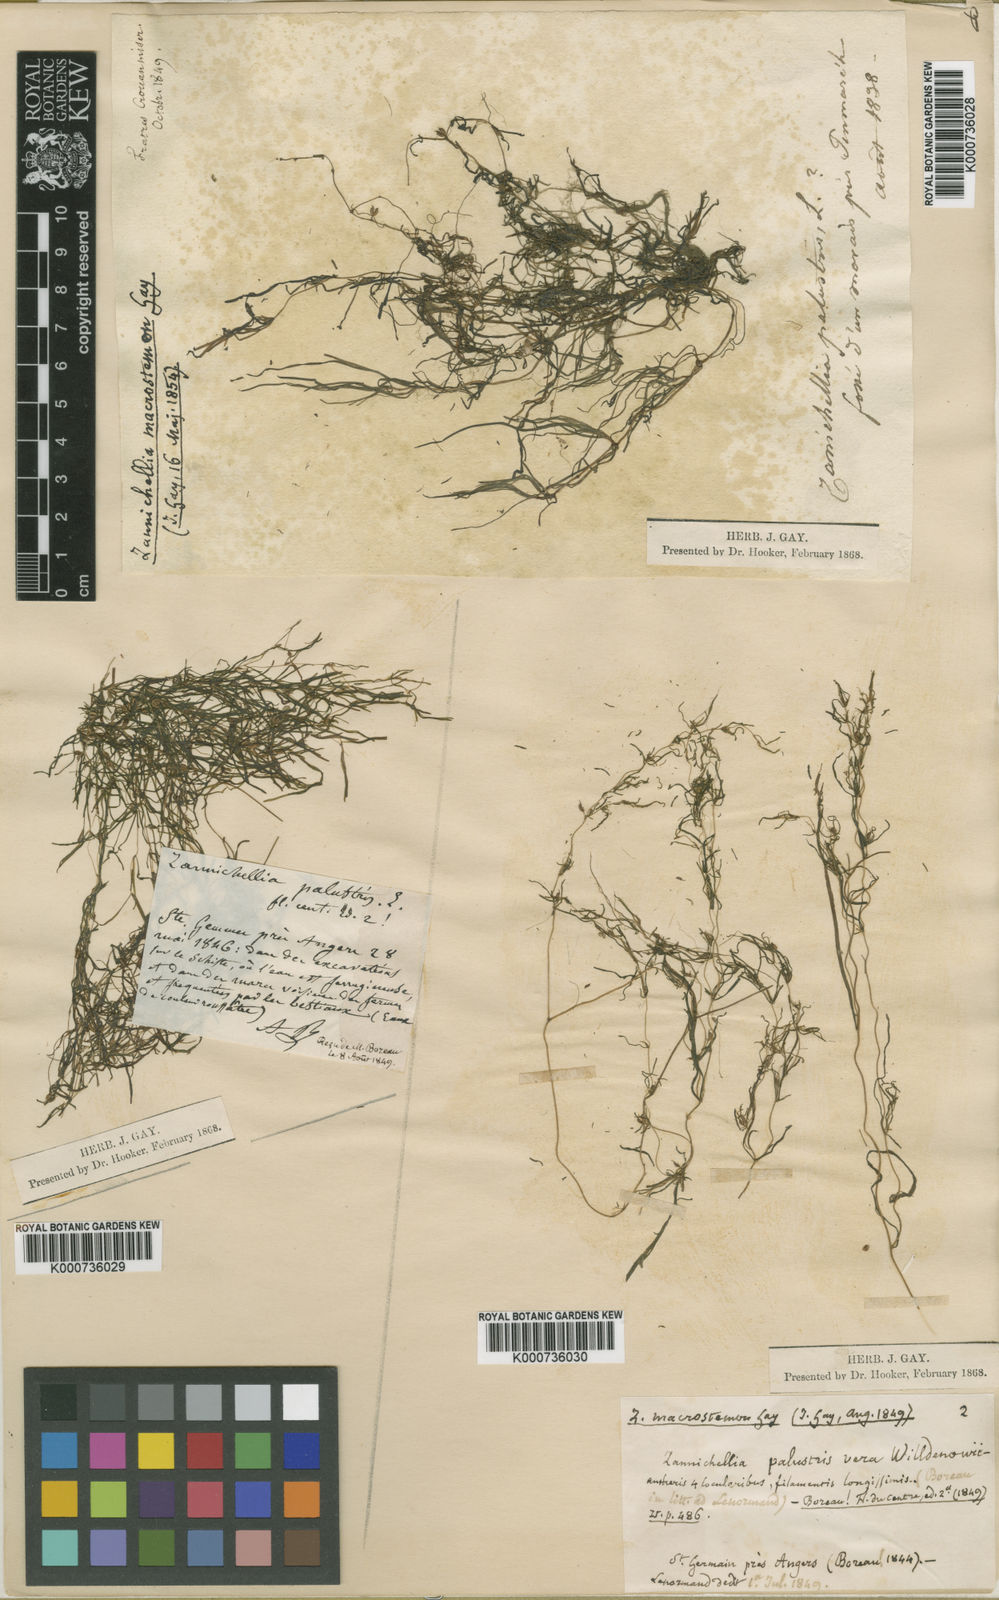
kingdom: Plantae
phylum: Tracheophyta
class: Liliopsida
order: Alismatales
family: Potamogetonaceae
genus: Zannichellia
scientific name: Zannichellia palustris
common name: Horned pondweed
